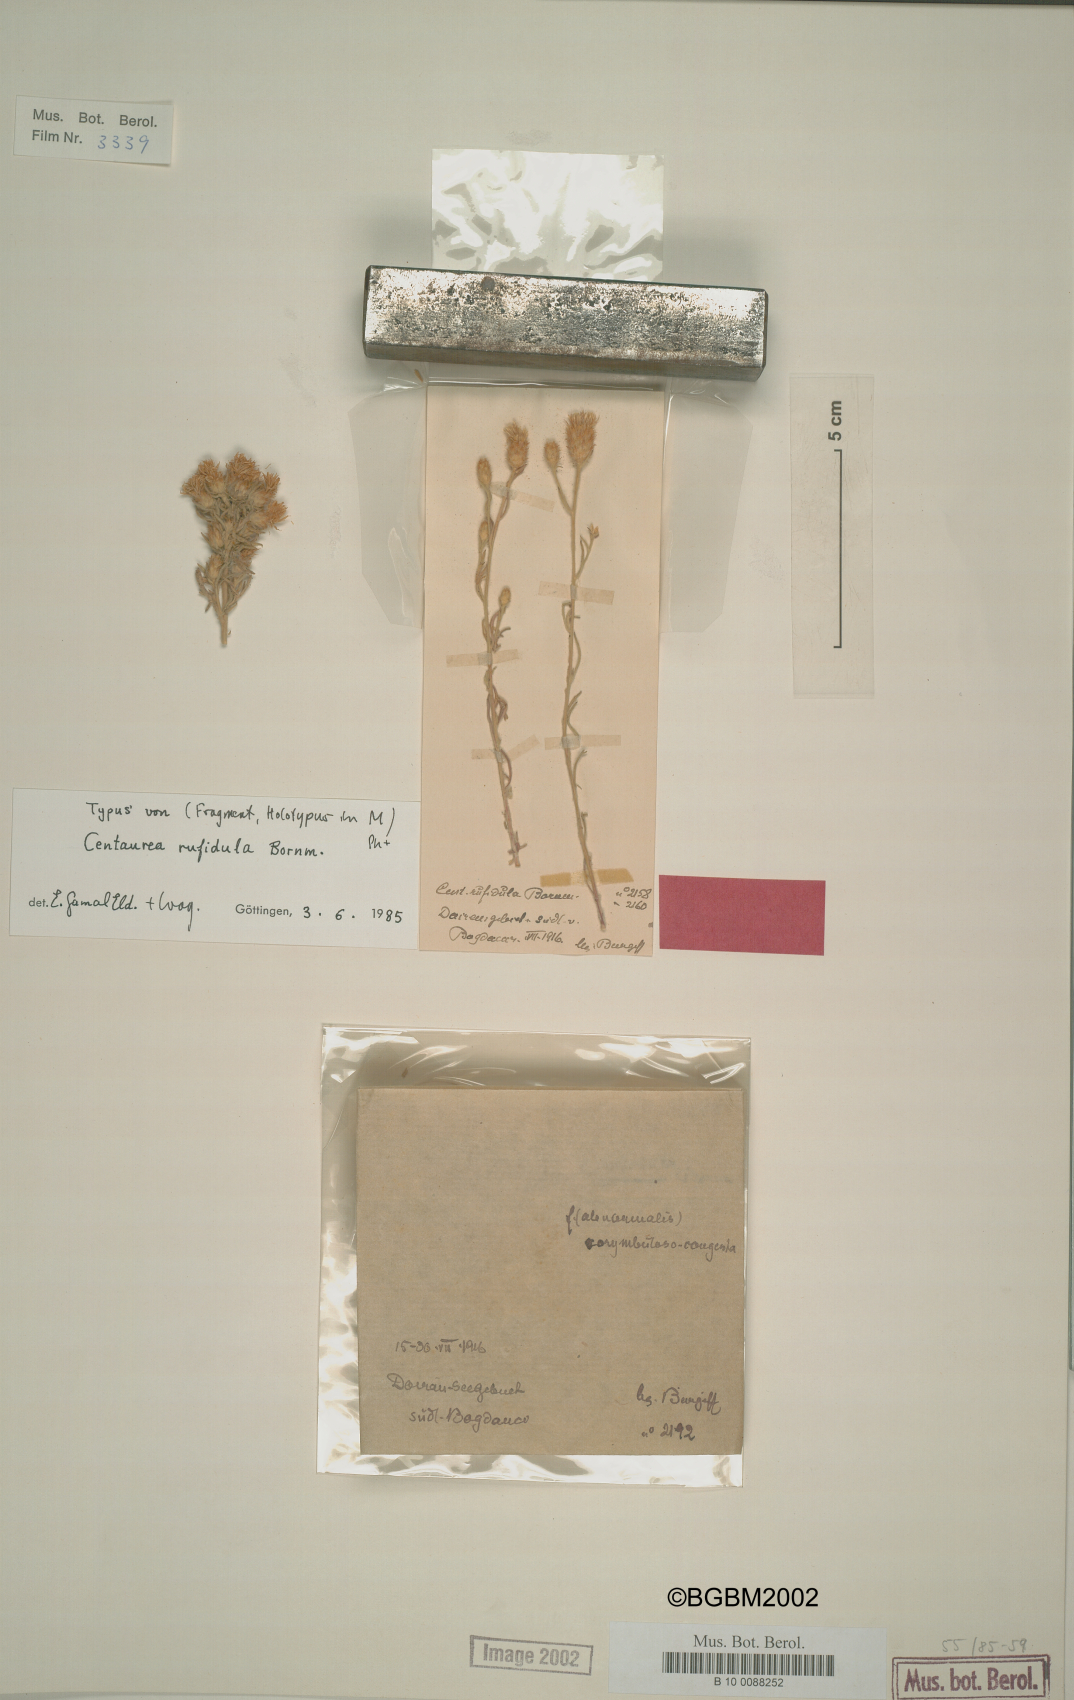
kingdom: Plantae
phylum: Tracheophyta
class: Magnoliopsida
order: Asterales
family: Asteraceae
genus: Centaurea
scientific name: Centaurea rufidula
